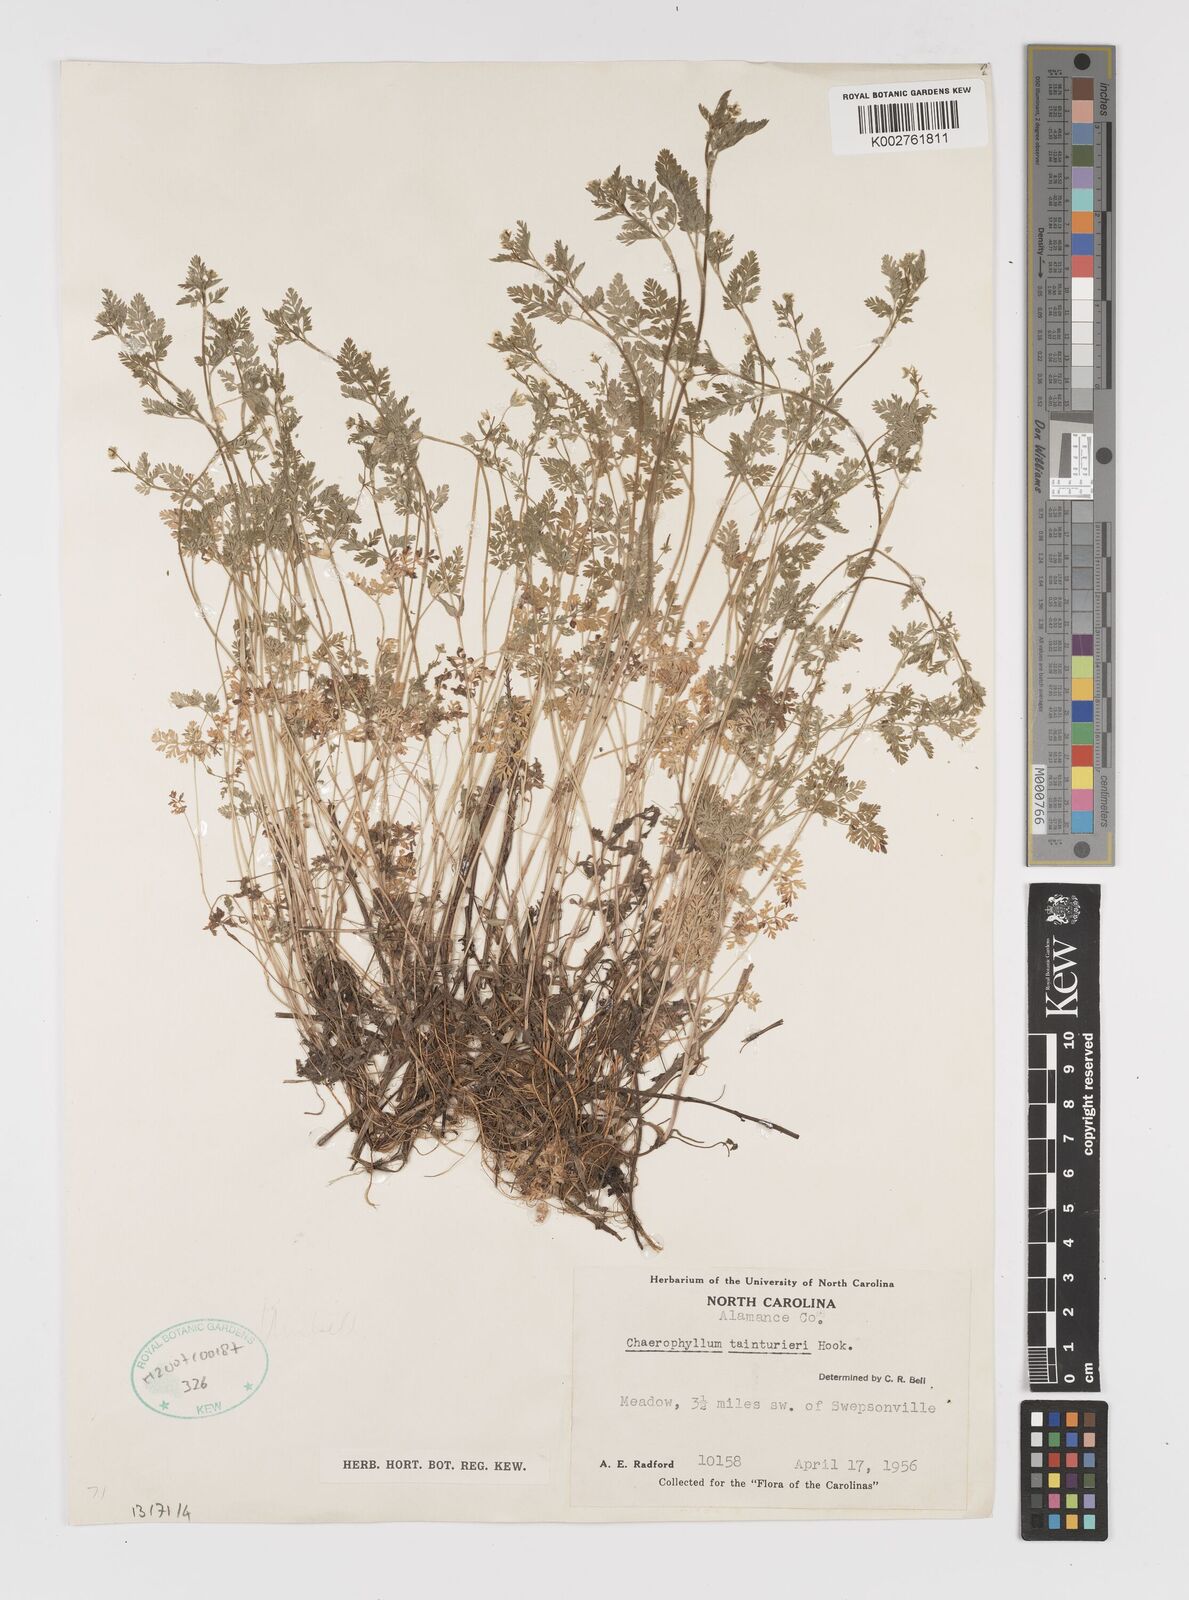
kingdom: Plantae
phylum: Tracheophyta
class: Magnoliopsida
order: Apiales
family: Apiaceae
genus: Chaerophyllum
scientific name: Chaerophyllum tainturieri
